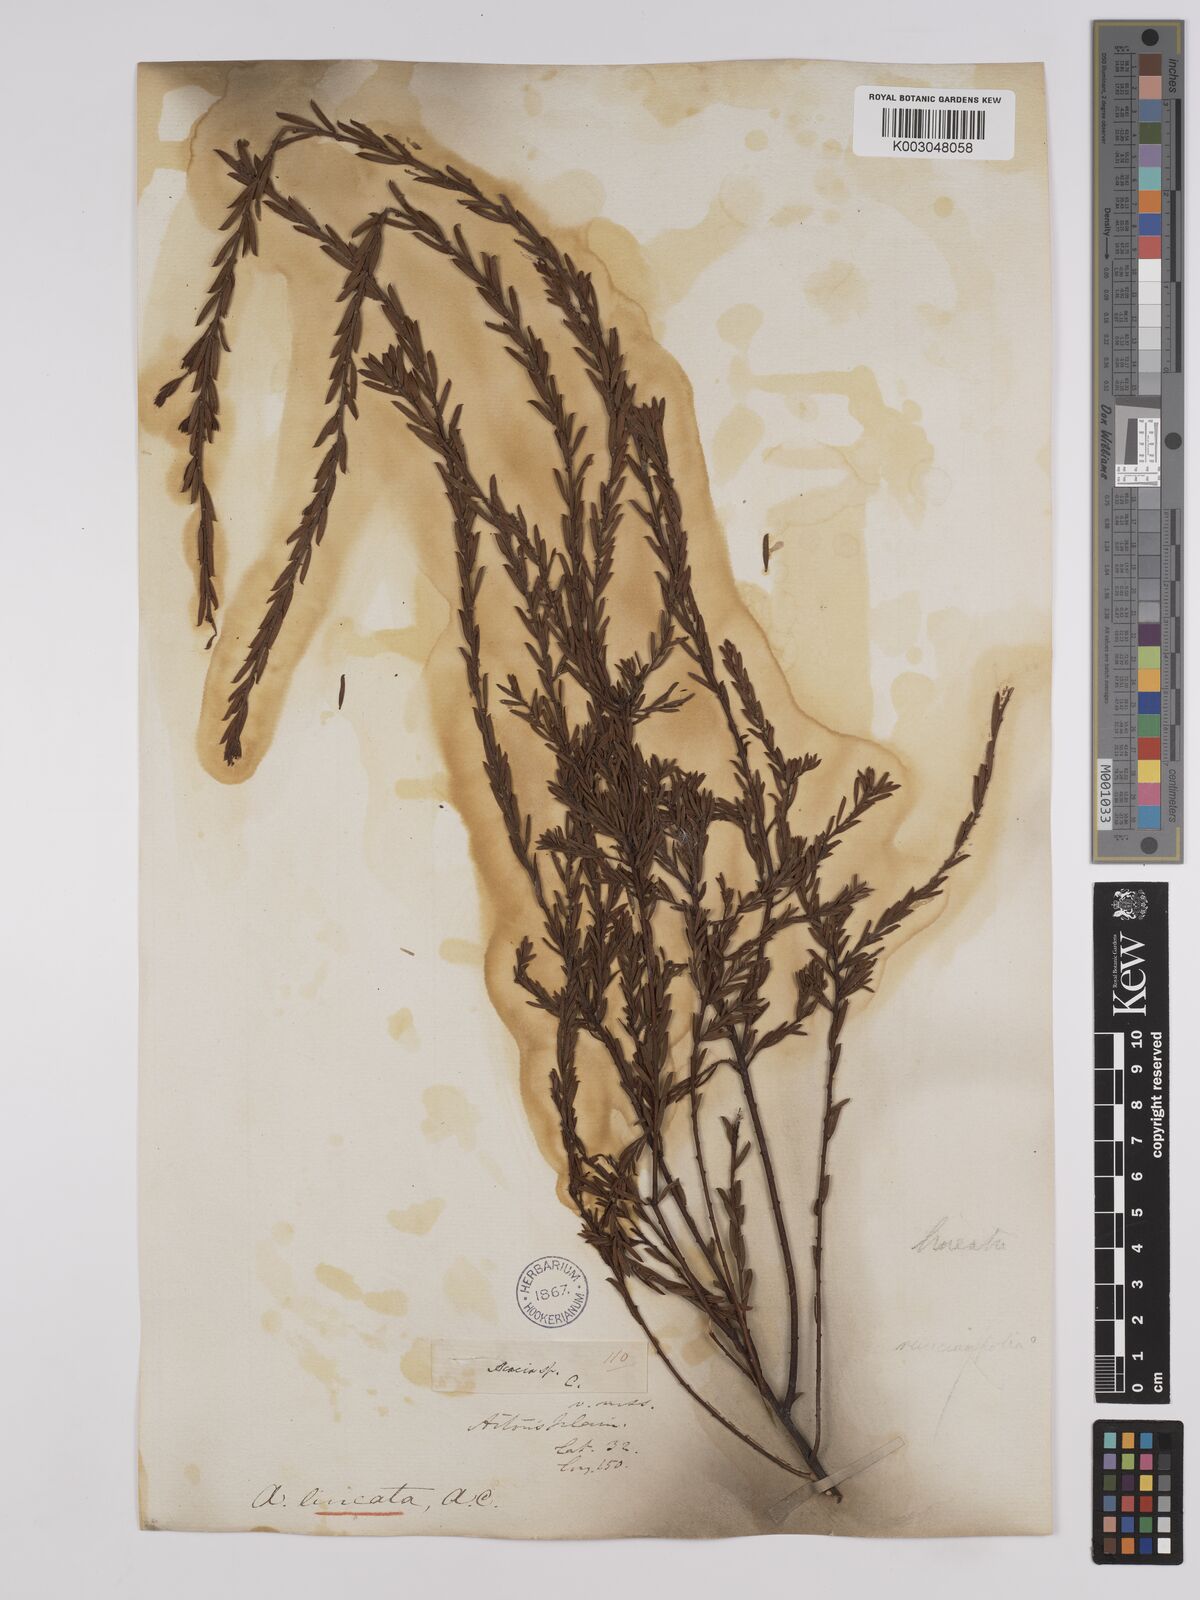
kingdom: Plantae
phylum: Tracheophyta
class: Magnoliopsida
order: Fabales
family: Fabaceae
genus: Acacia
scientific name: Acacia lineata
